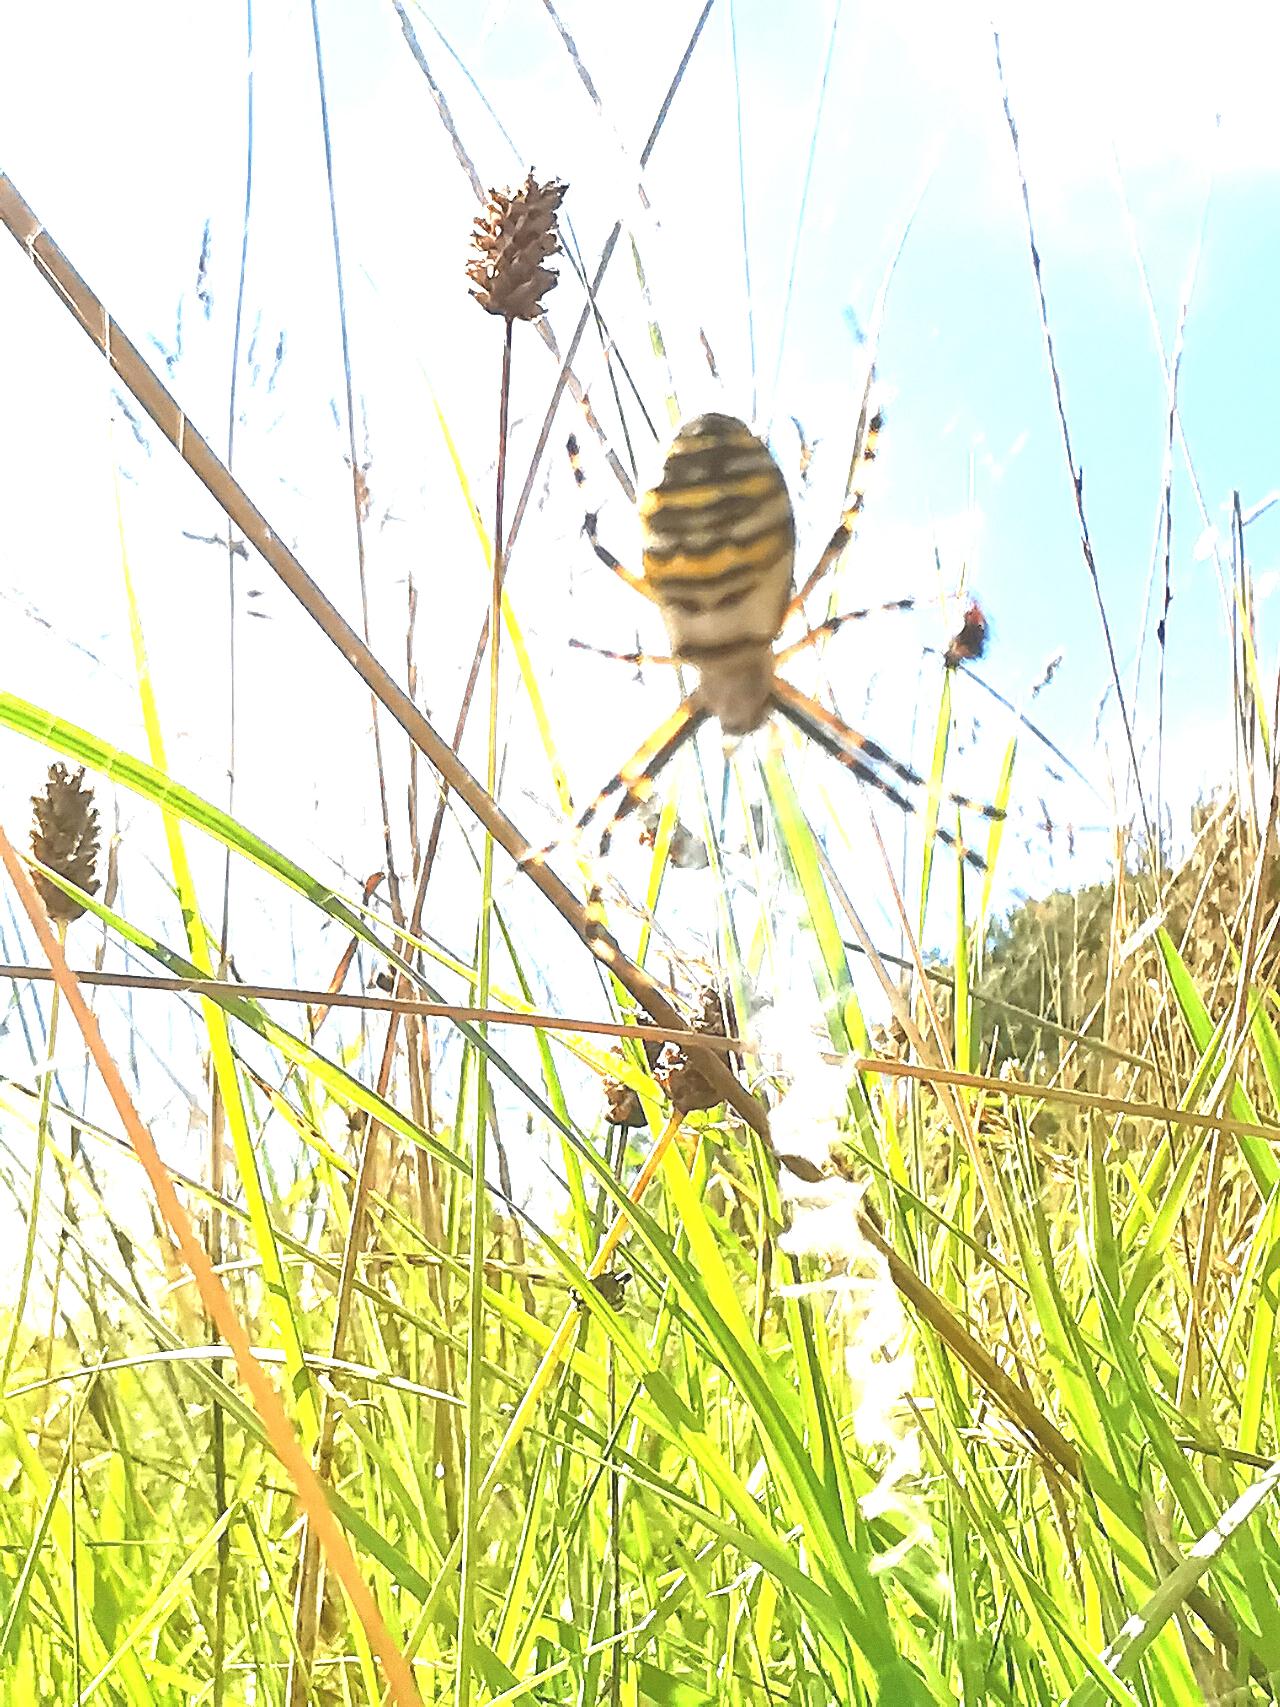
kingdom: Animalia
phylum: Arthropoda
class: Arachnida
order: Araneae
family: Araneidae
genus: Argiope
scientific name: Argiope bruennichi
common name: Hvepseedderkop
